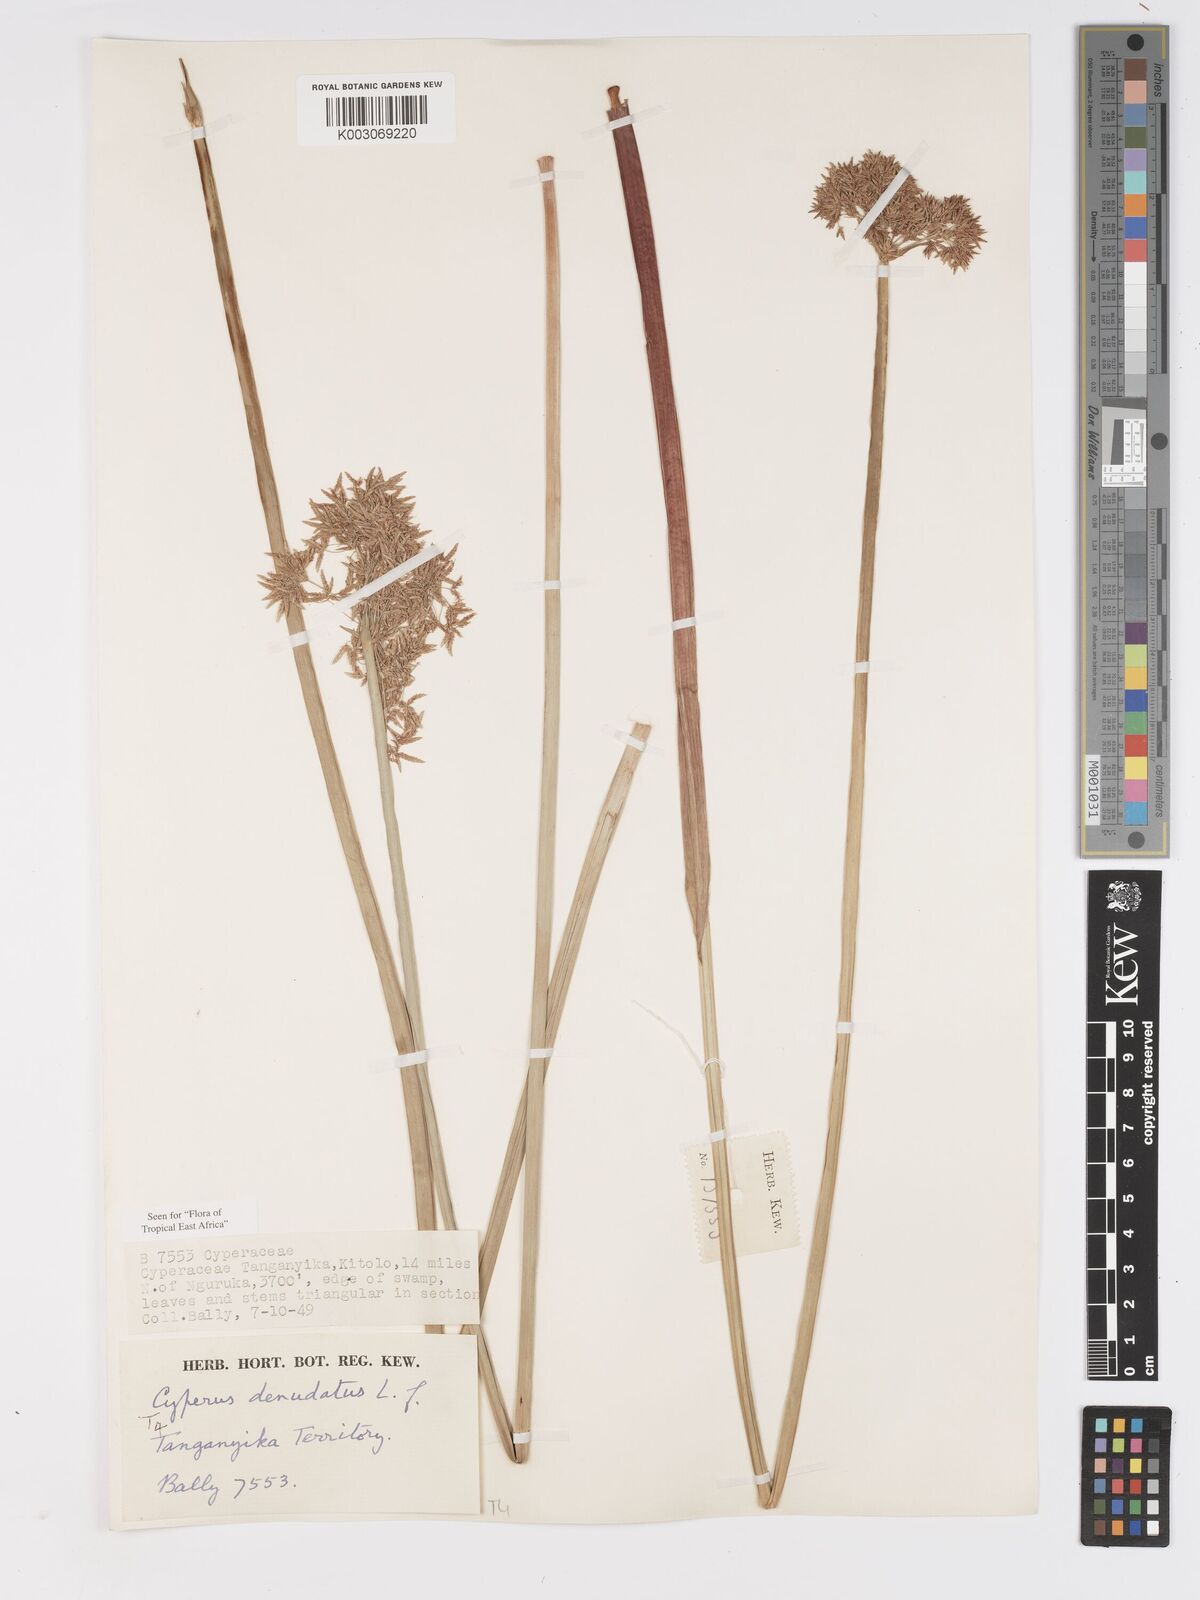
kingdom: Plantae
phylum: Tracheophyta
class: Liliopsida
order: Poales
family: Cyperaceae
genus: Cyperus
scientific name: Cyperus denudatus
